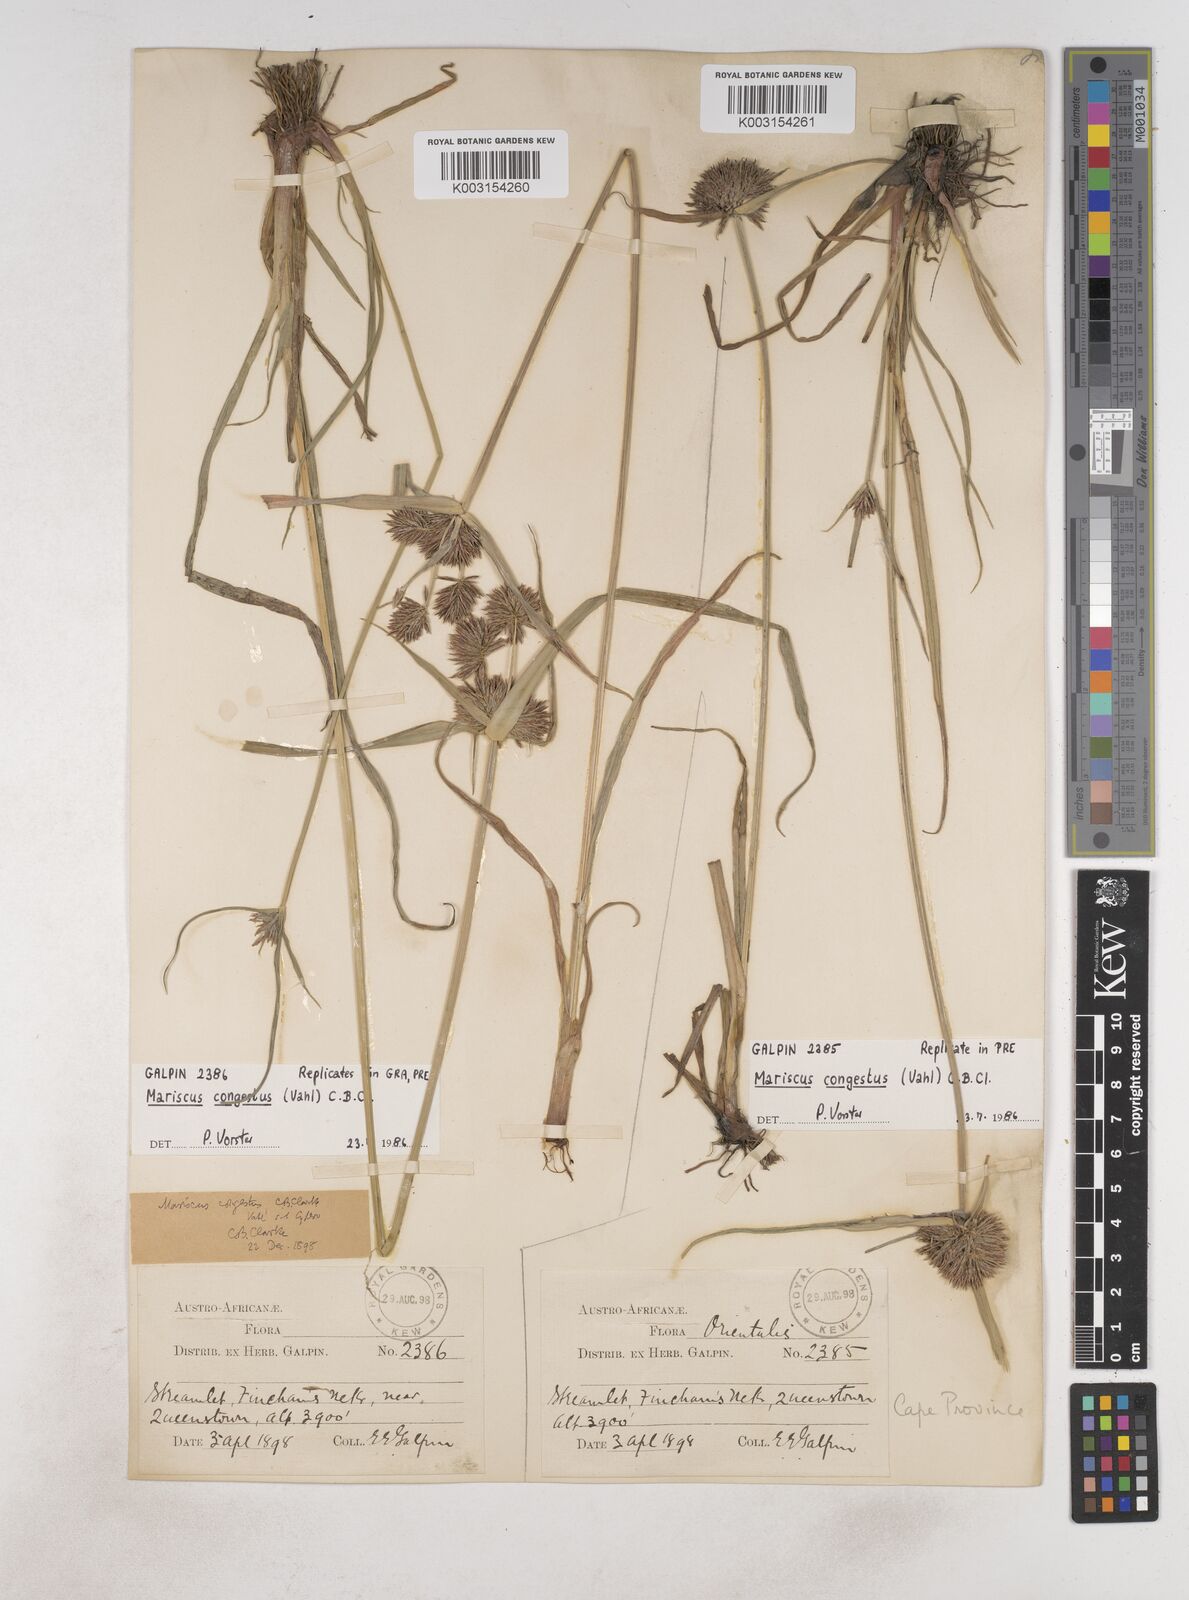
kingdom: Plantae
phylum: Tracheophyta
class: Liliopsida
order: Poales
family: Cyperaceae
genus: Cyperus
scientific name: Cyperus congestus
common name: Dense flat sedge
